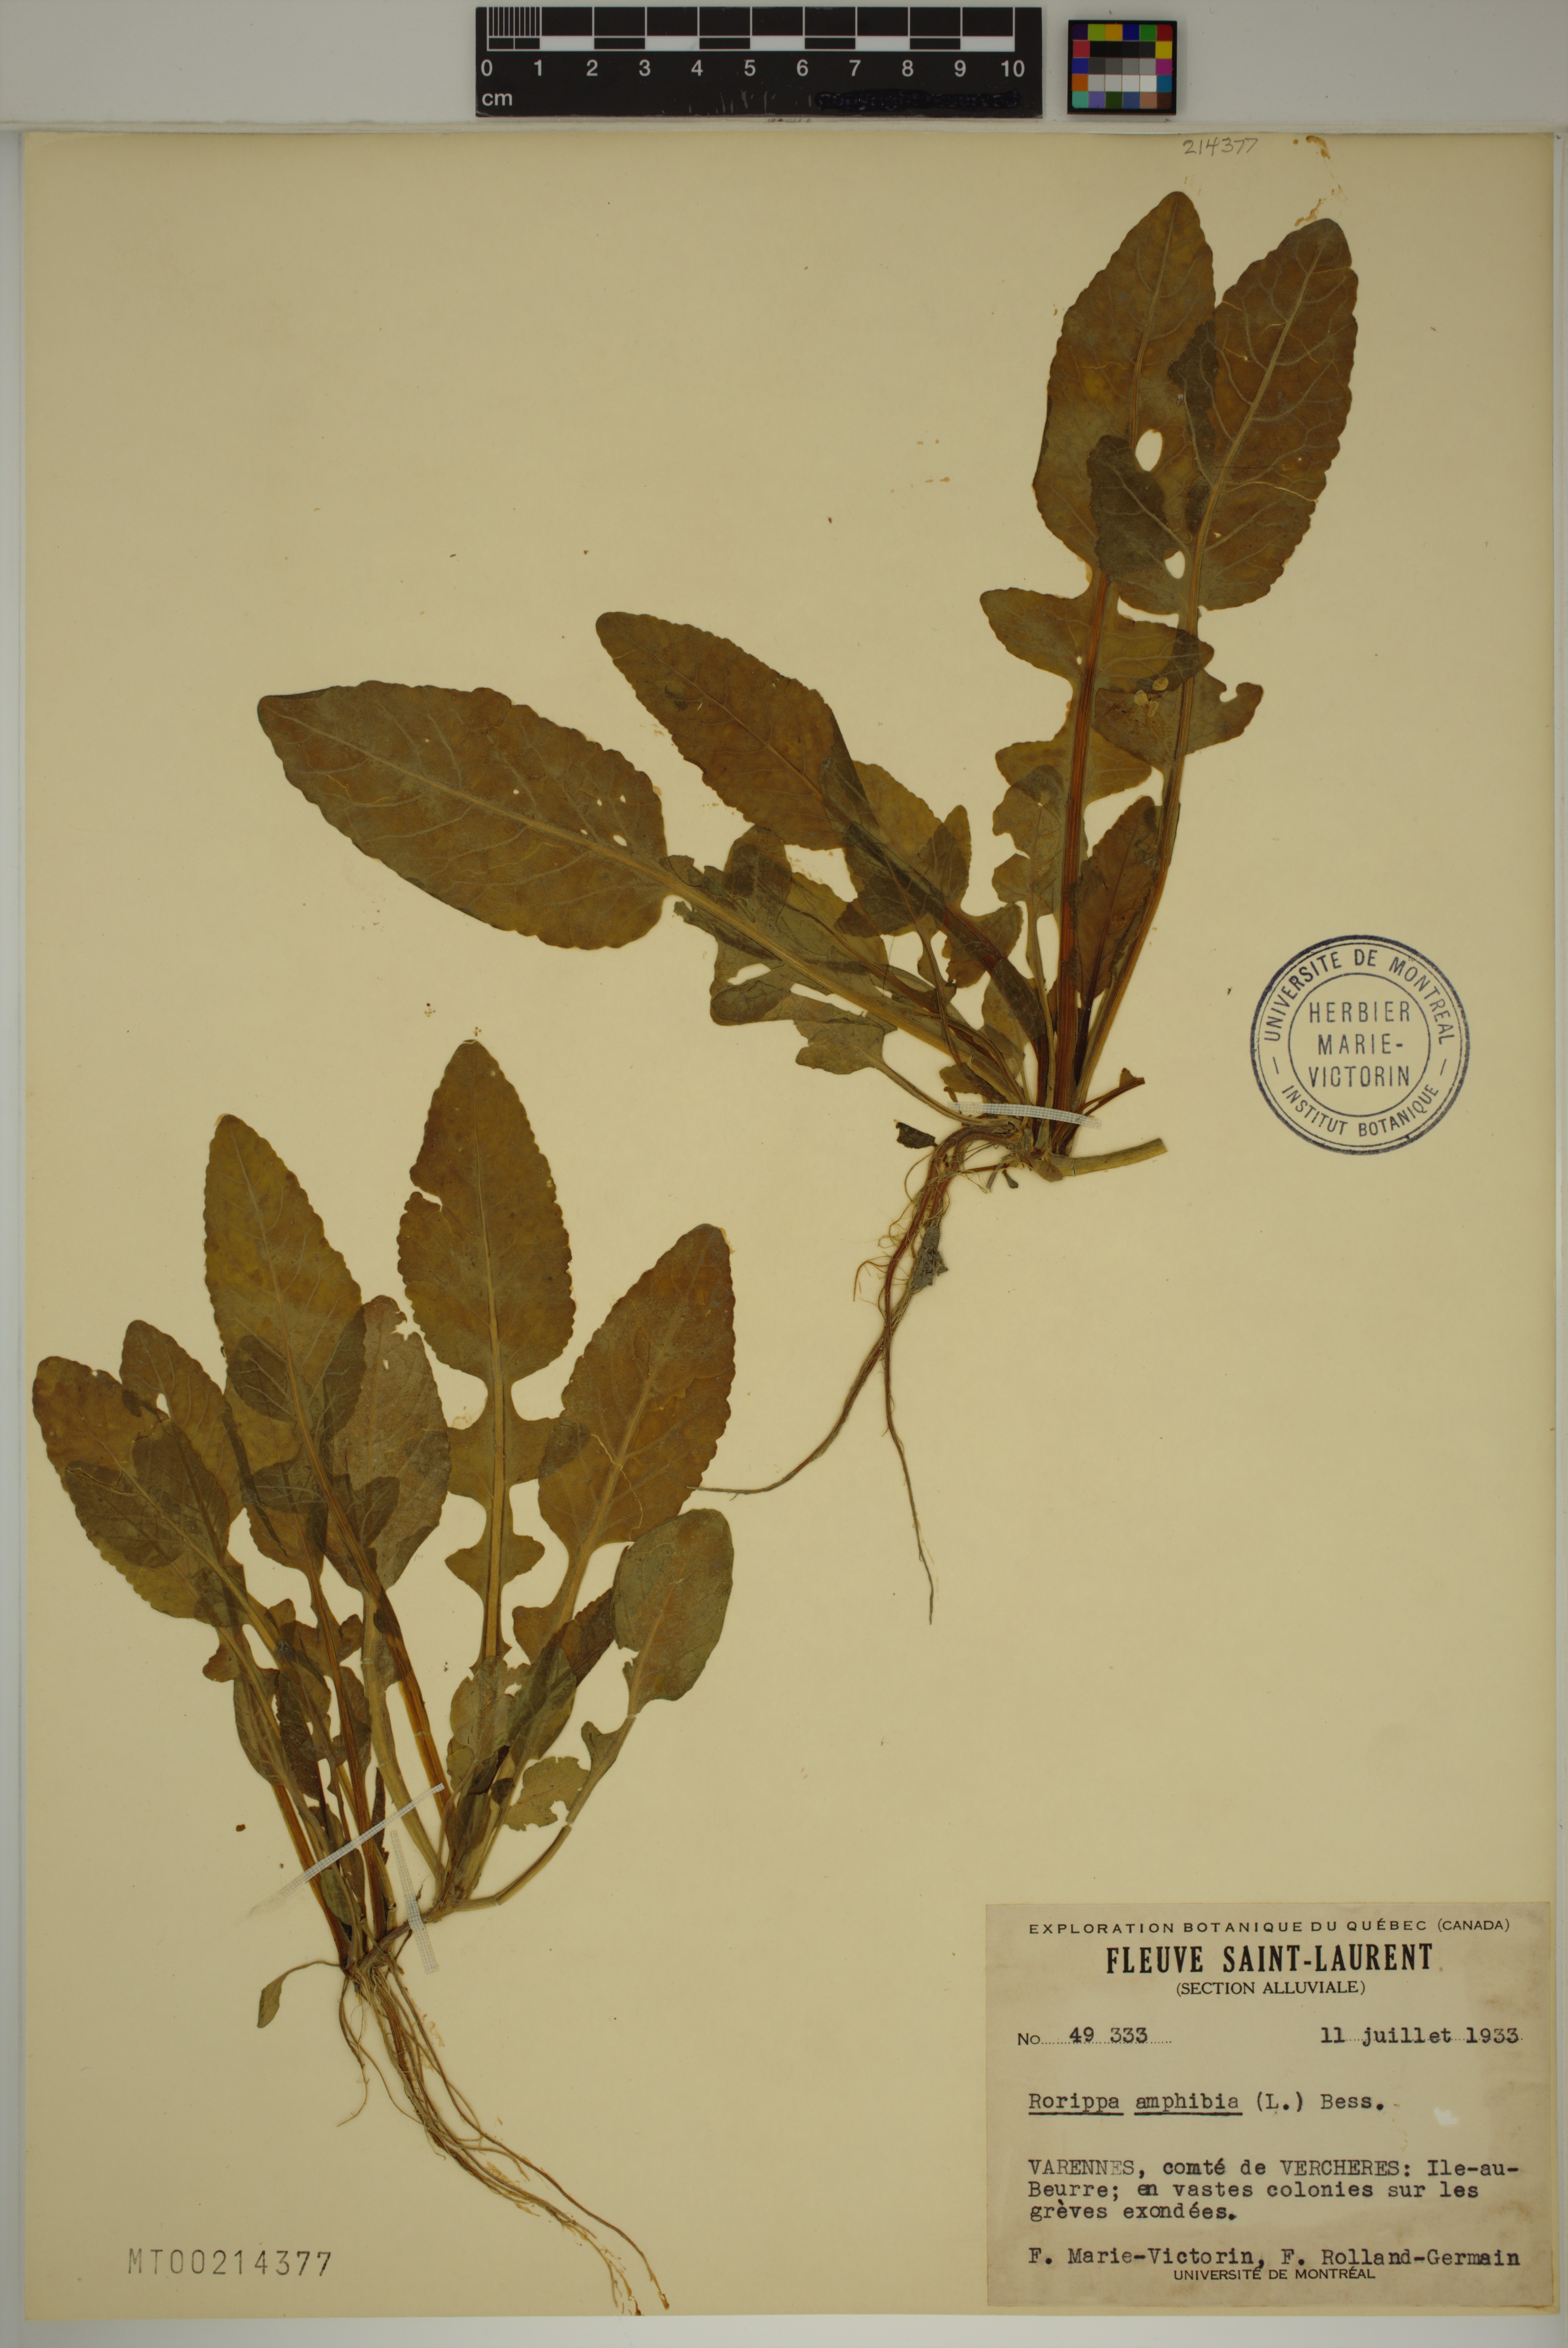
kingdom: Plantae
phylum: Tracheophyta
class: Magnoliopsida
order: Brassicales
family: Brassicaceae
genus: Rorippa
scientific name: Rorippa amphibia
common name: Great yellow-cress
